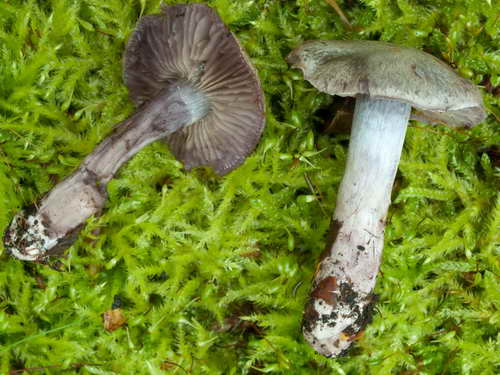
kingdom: Fungi
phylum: Basidiomycota
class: Agaricomycetes
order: Agaricales
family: Cortinariaceae
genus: Thaxterogaster
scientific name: Thaxterogaster subporphyropus
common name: ametyst-slørhat
